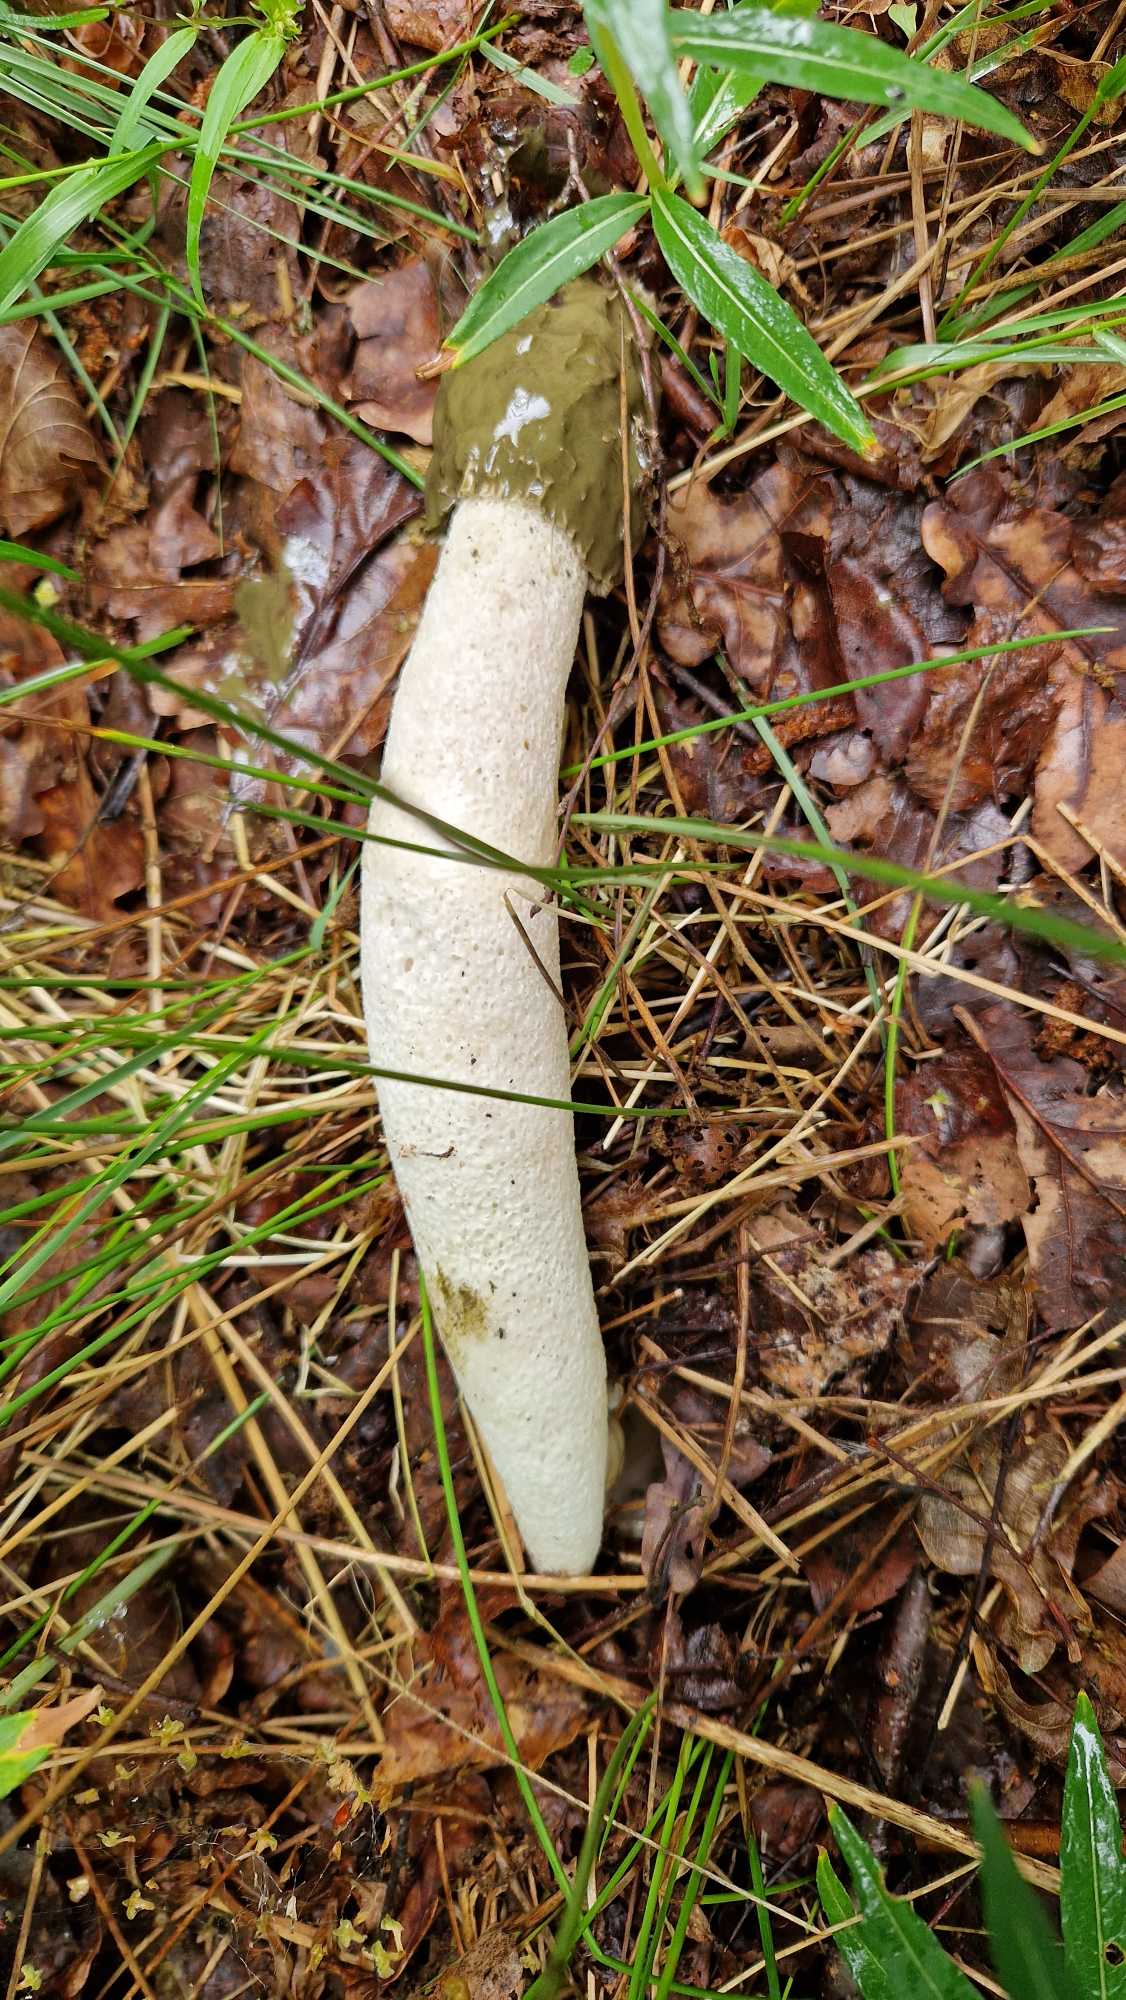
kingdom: Fungi
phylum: Basidiomycota
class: Agaricomycetes
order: Phallales
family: Phallaceae
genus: Phallus
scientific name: Phallus impudicus
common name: Almindelig stinksvamp
